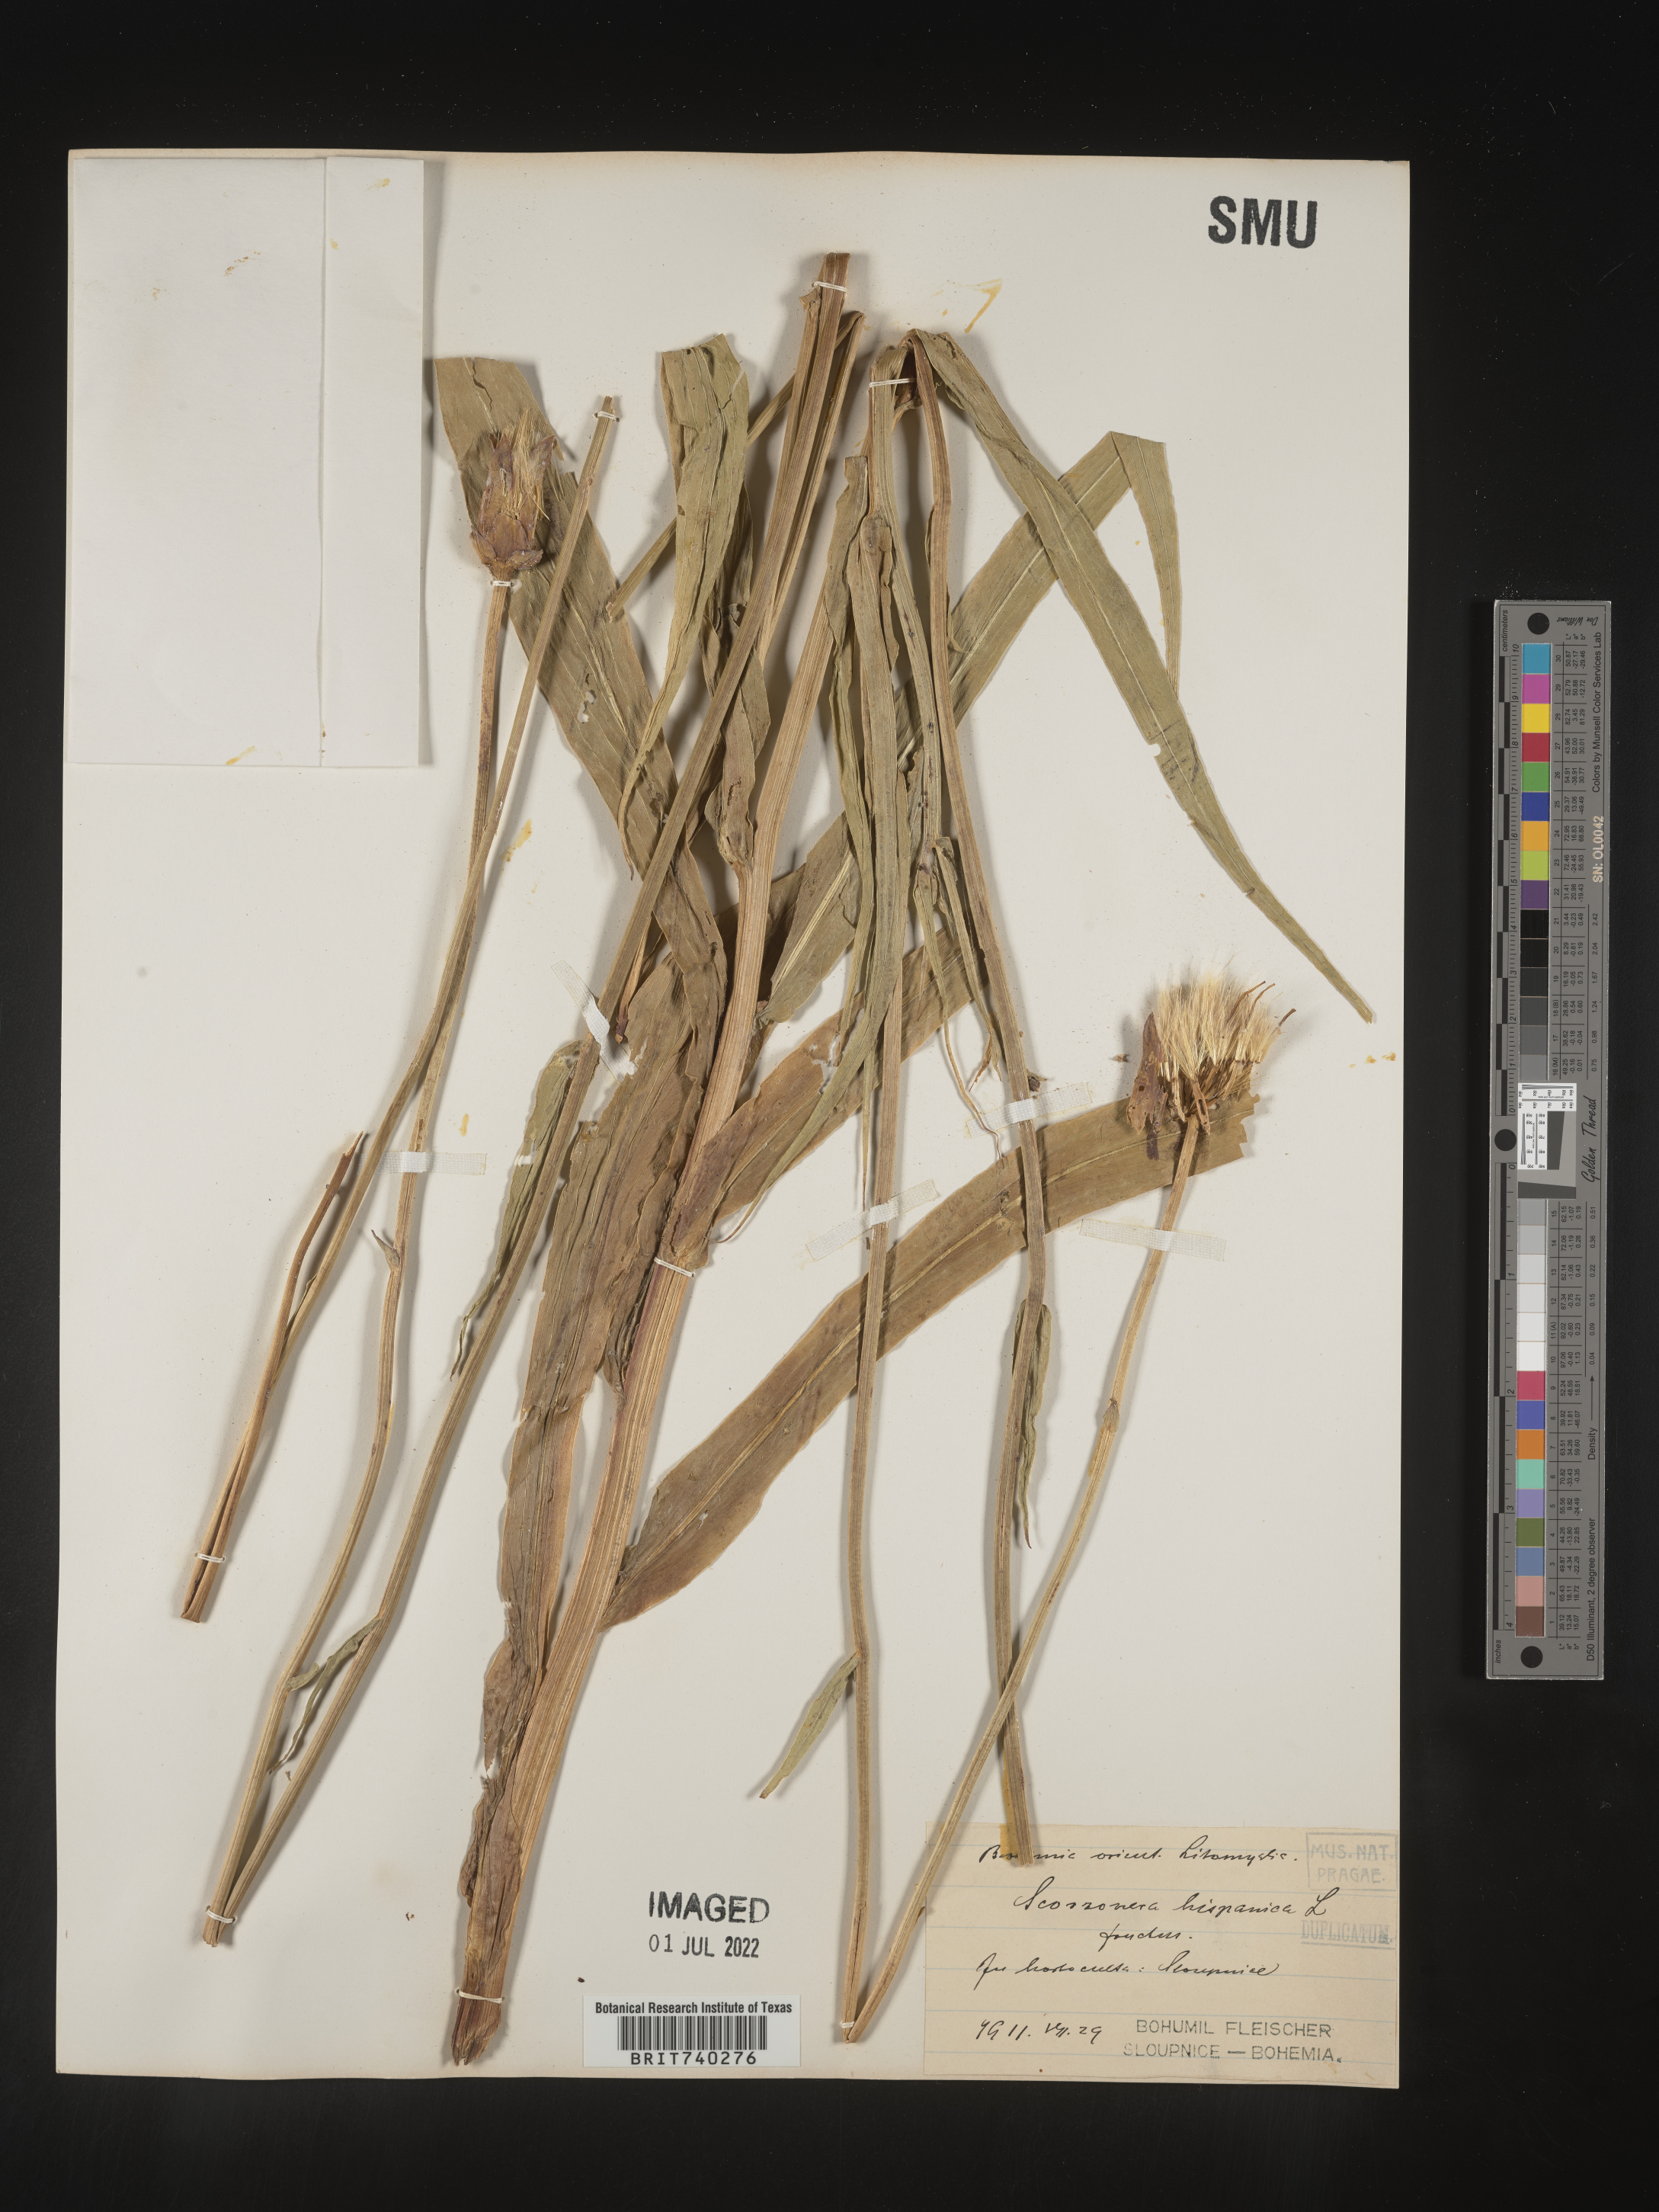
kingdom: Plantae
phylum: Tracheophyta
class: Magnoliopsida
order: Asterales
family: Asteraceae
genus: Scorzonera
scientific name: Scorzonera
